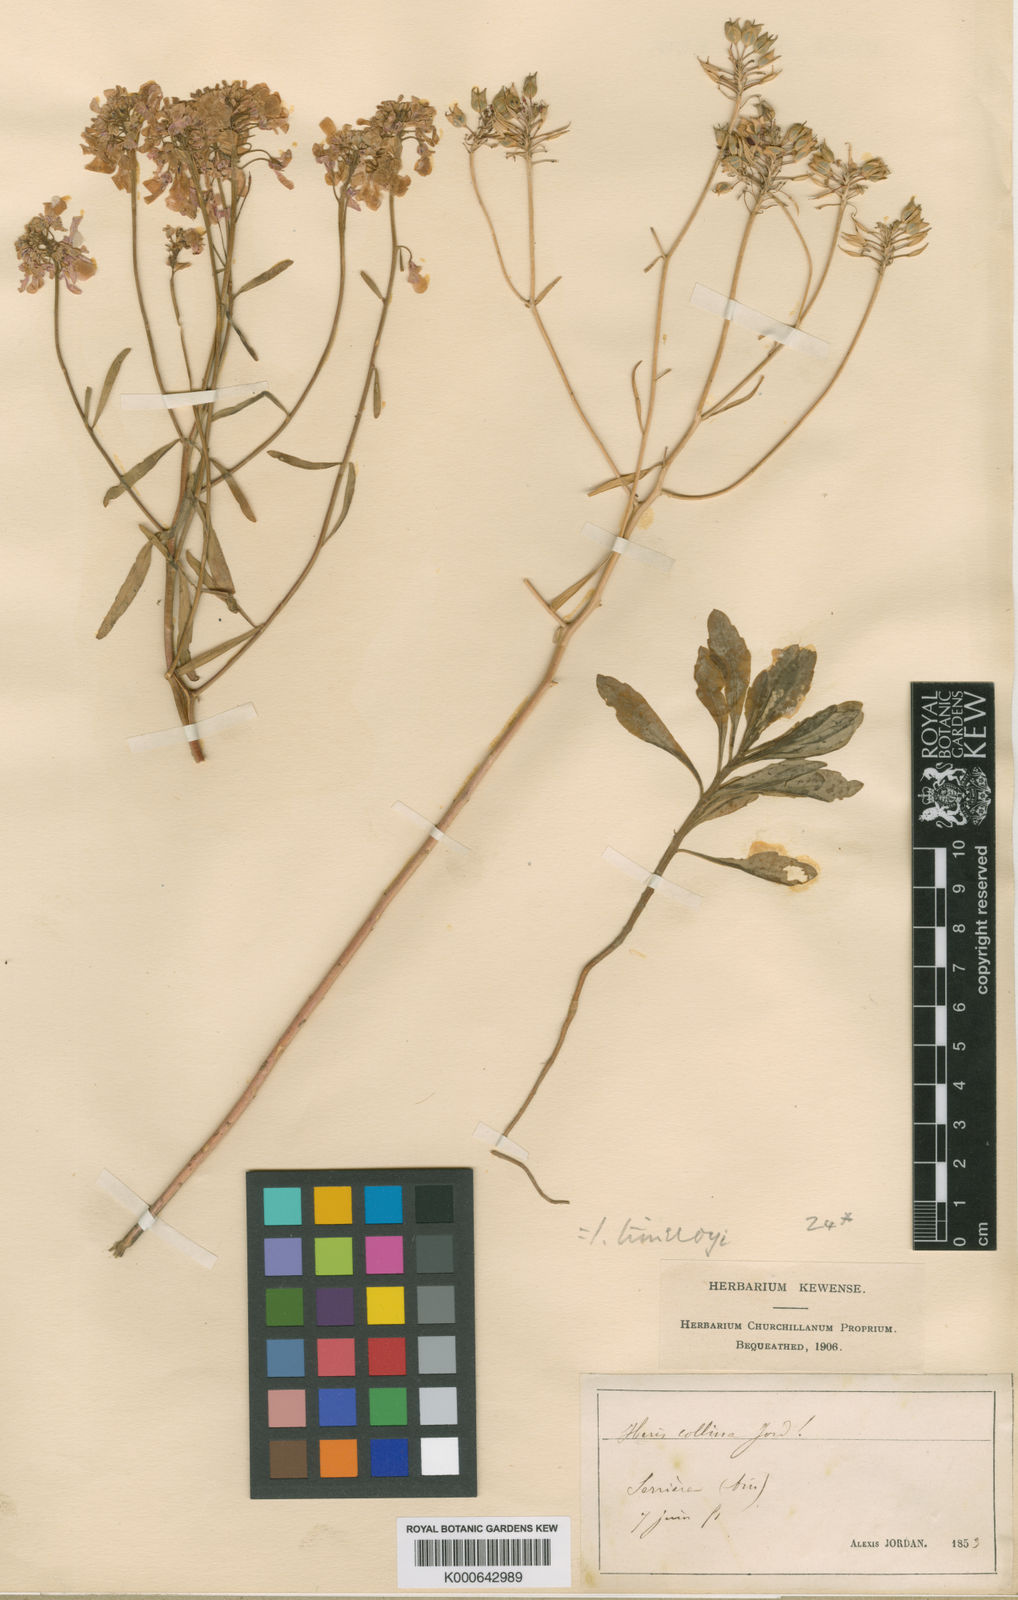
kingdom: Plantae
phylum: Tracheophyta
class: Magnoliopsida
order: Brassicales
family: Brassicaceae
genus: Iberis
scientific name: Iberis linifolia
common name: Candytuft
